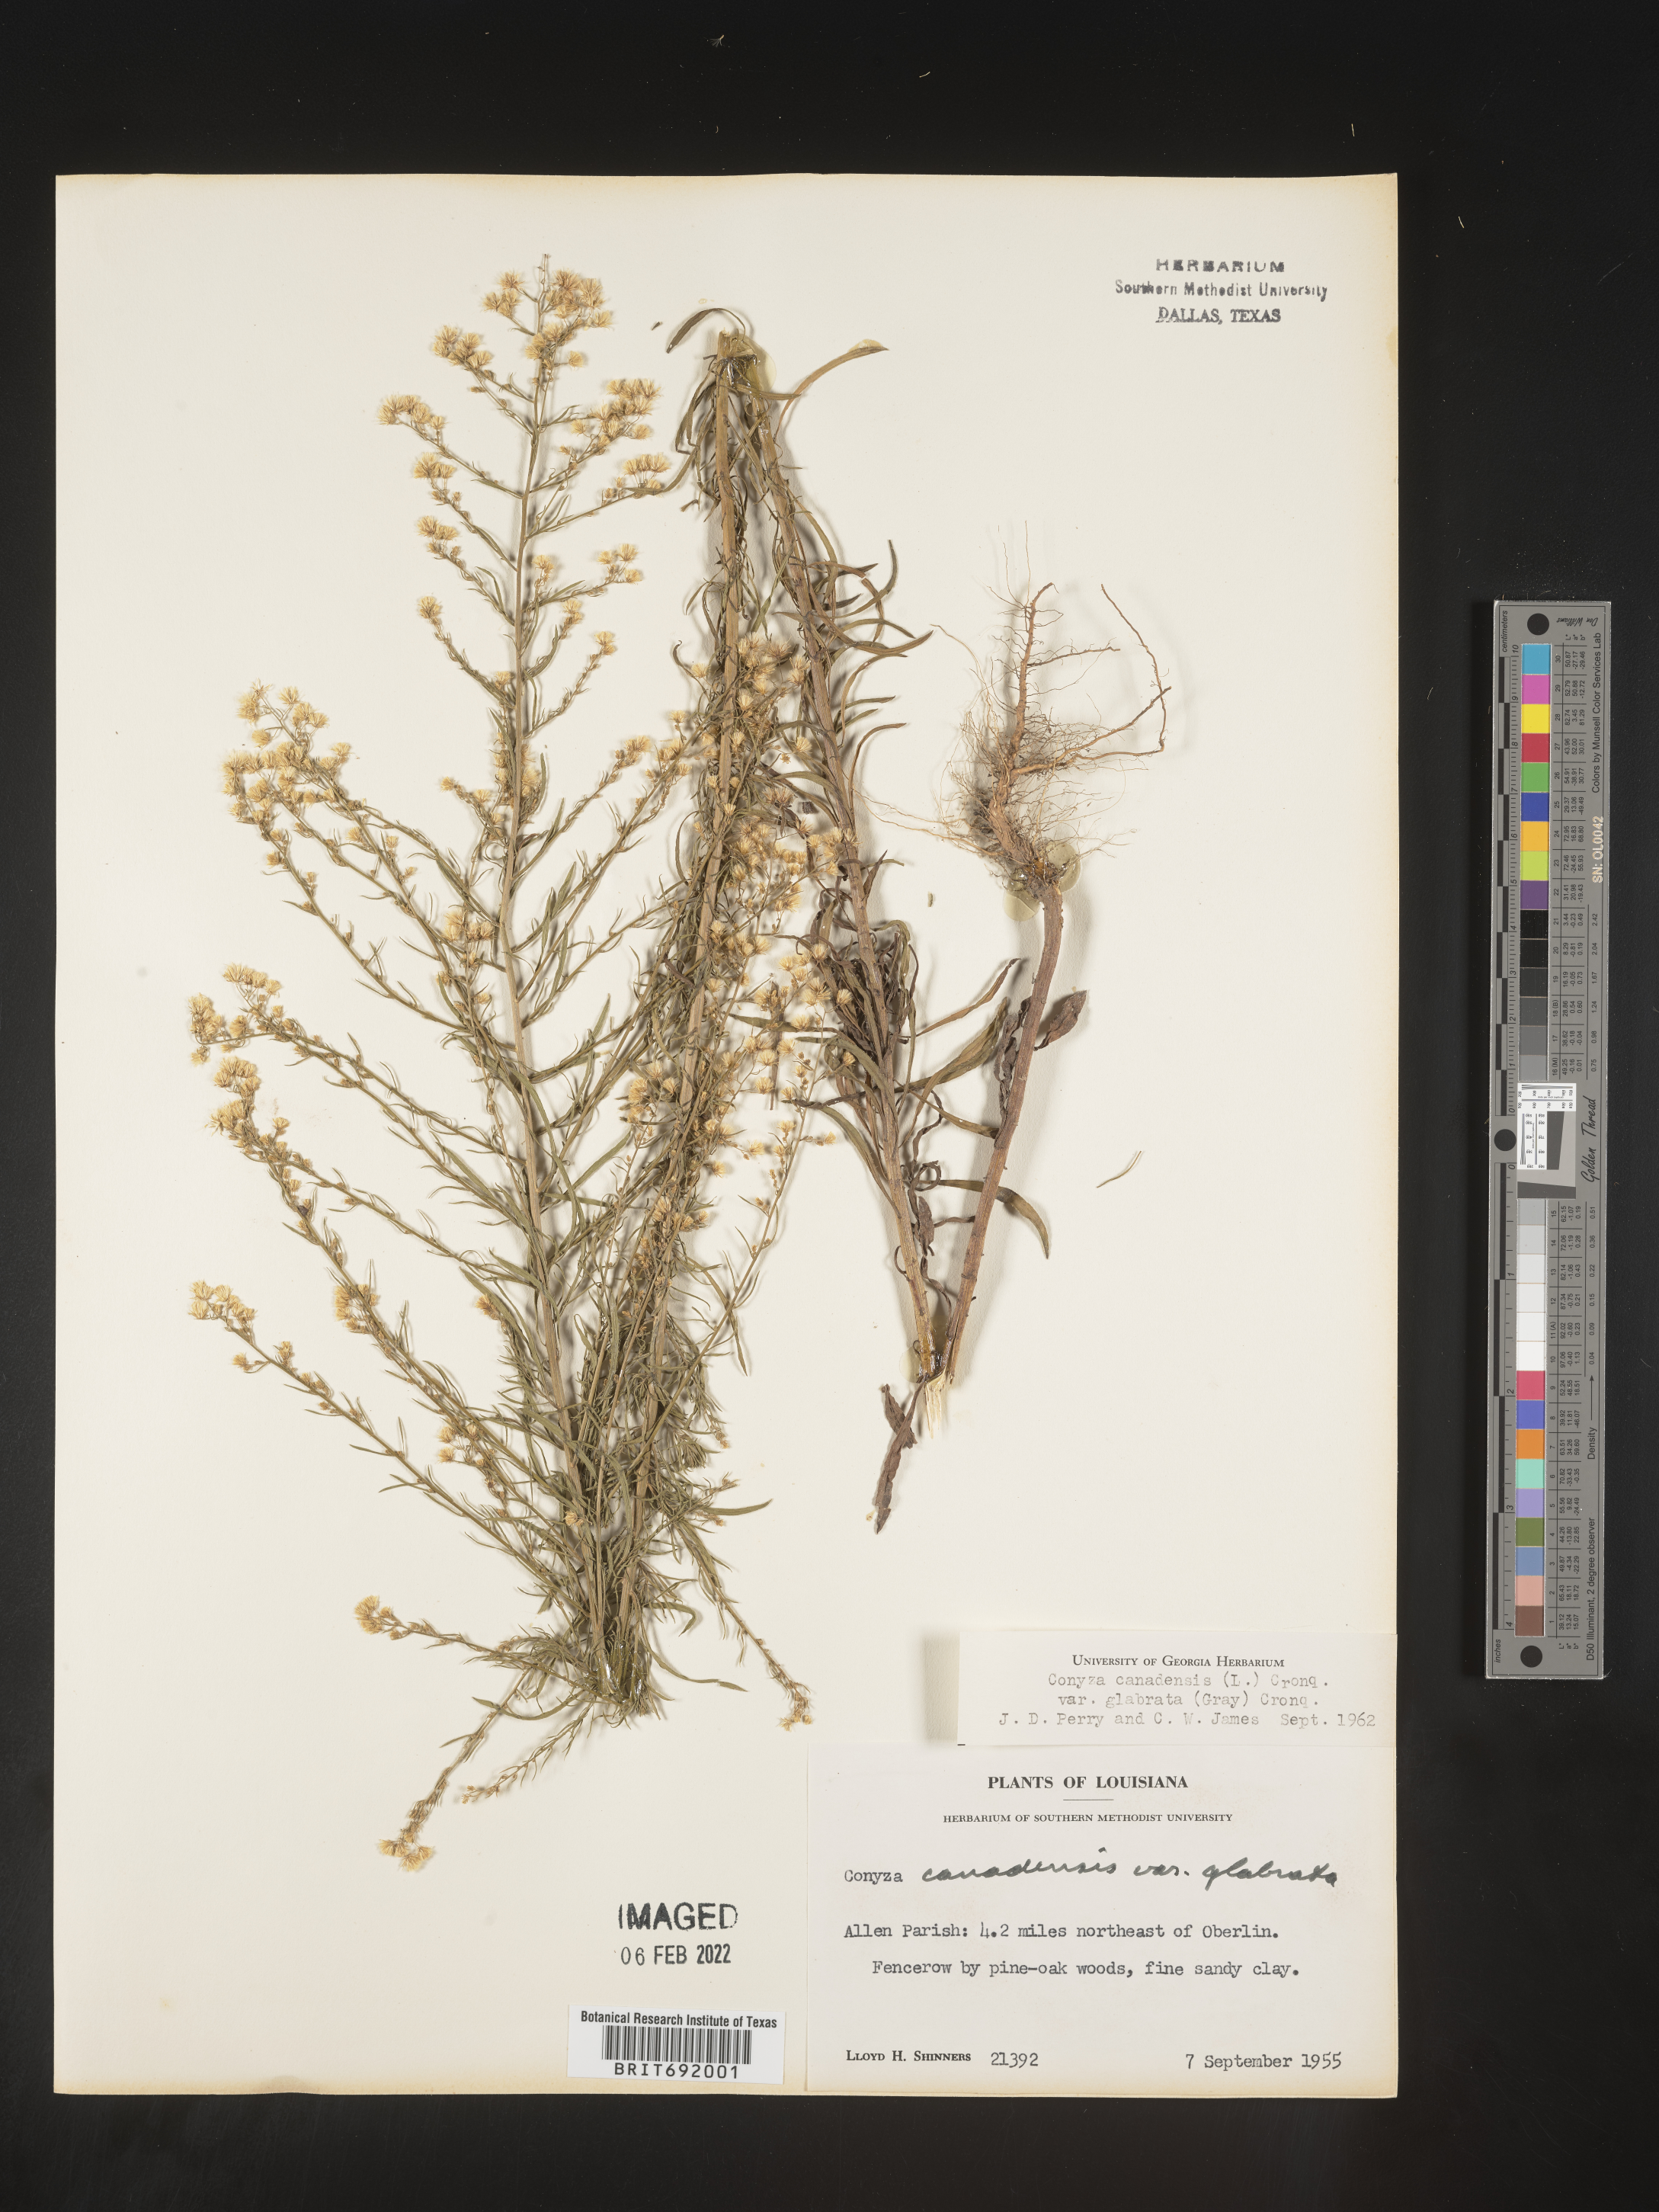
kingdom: Plantae
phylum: Tracheophyta
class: Magnoliopsida
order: Asterales
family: Asteraceae
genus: Erigeron
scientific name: Erigeron canadensis
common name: Canadian fleabane
